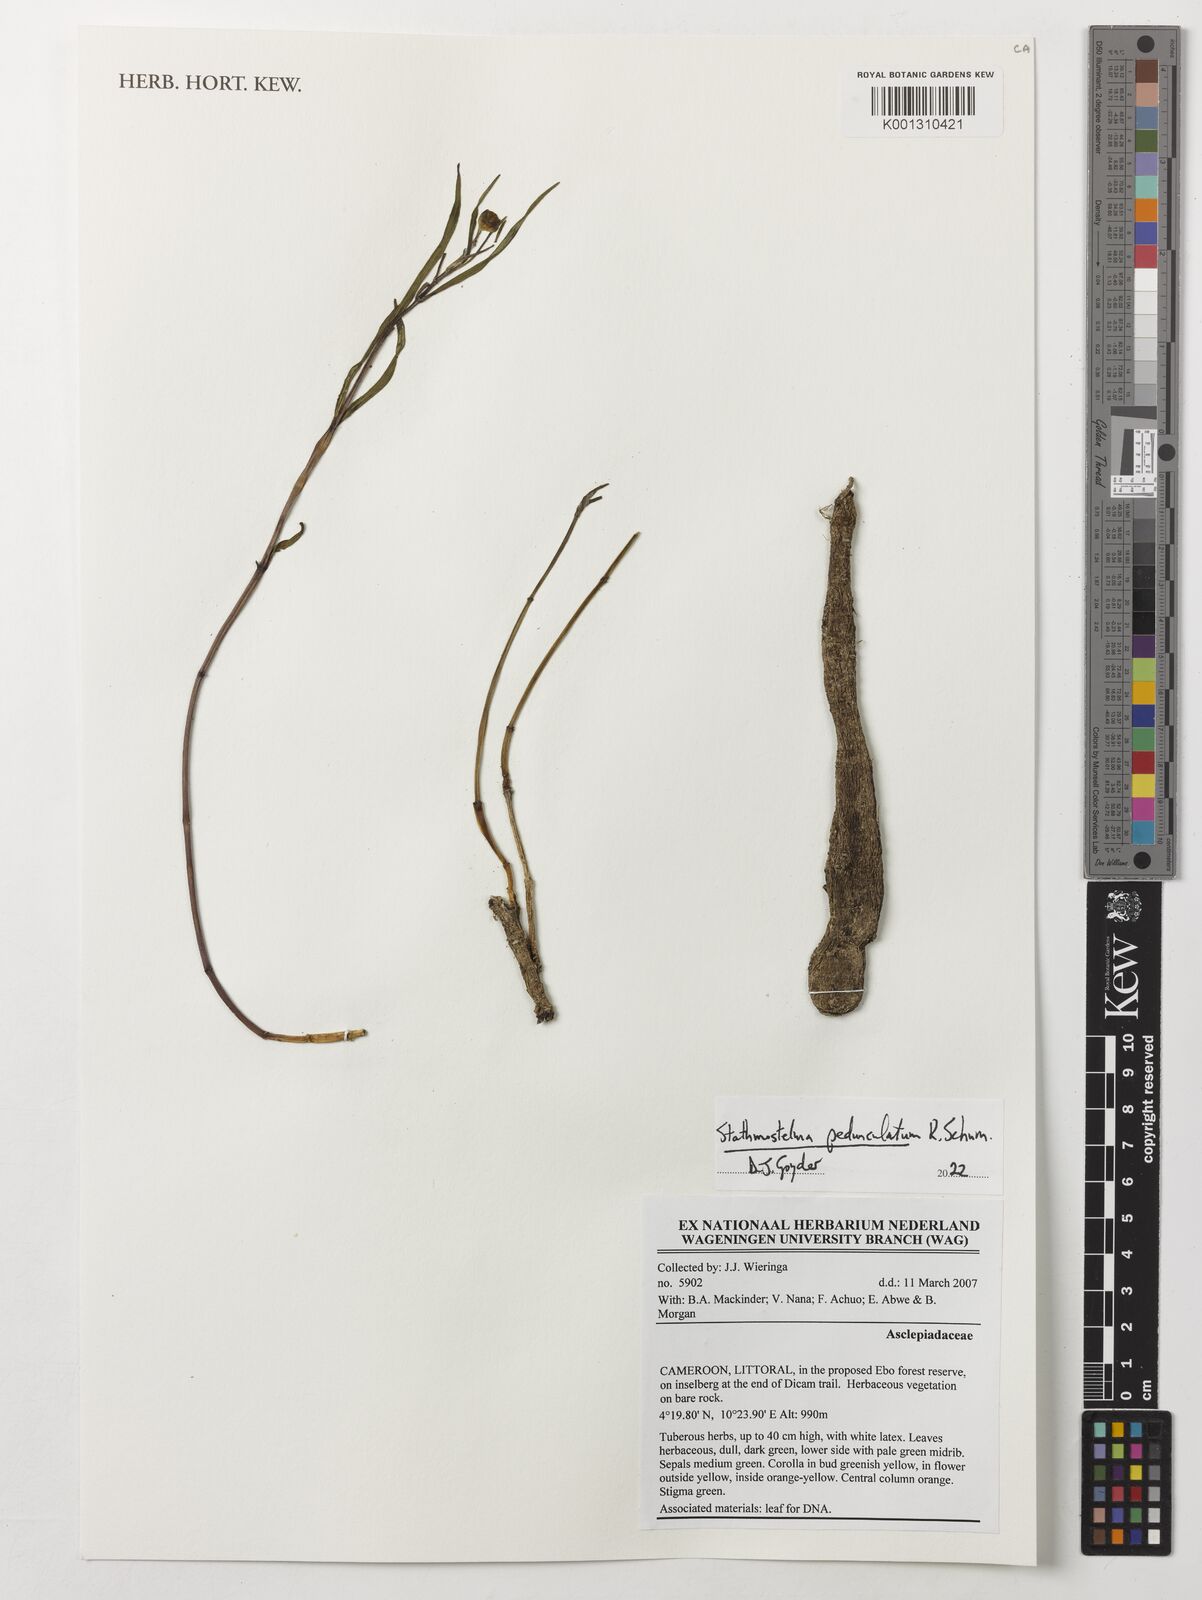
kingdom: Plantae
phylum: Tracheophyta
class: Magnoliopsida
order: Gentianales
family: Apocynaceae
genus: Stathmostelma
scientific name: Stathmostelma pedunculatum
